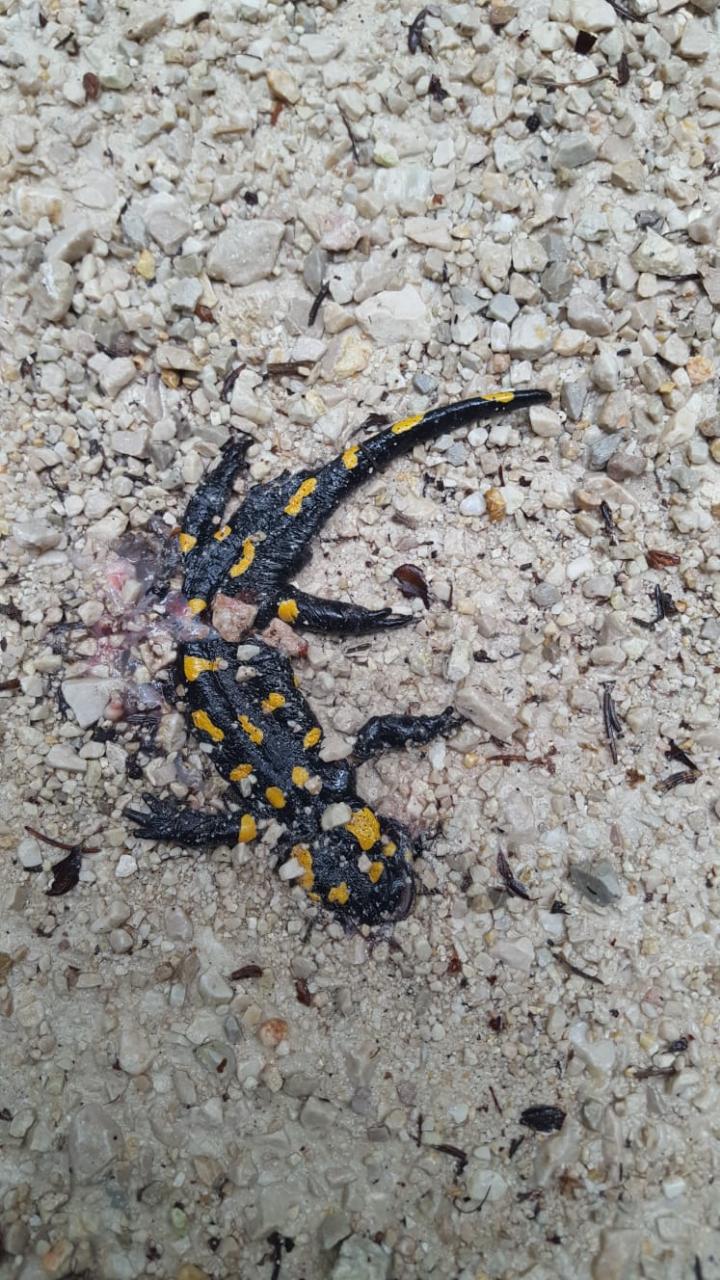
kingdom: Animalia
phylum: Chordata
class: Amphibia
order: Caudata
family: Salamandridae
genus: Salamandra
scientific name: Salamandra salamandra
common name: Fire salamander
